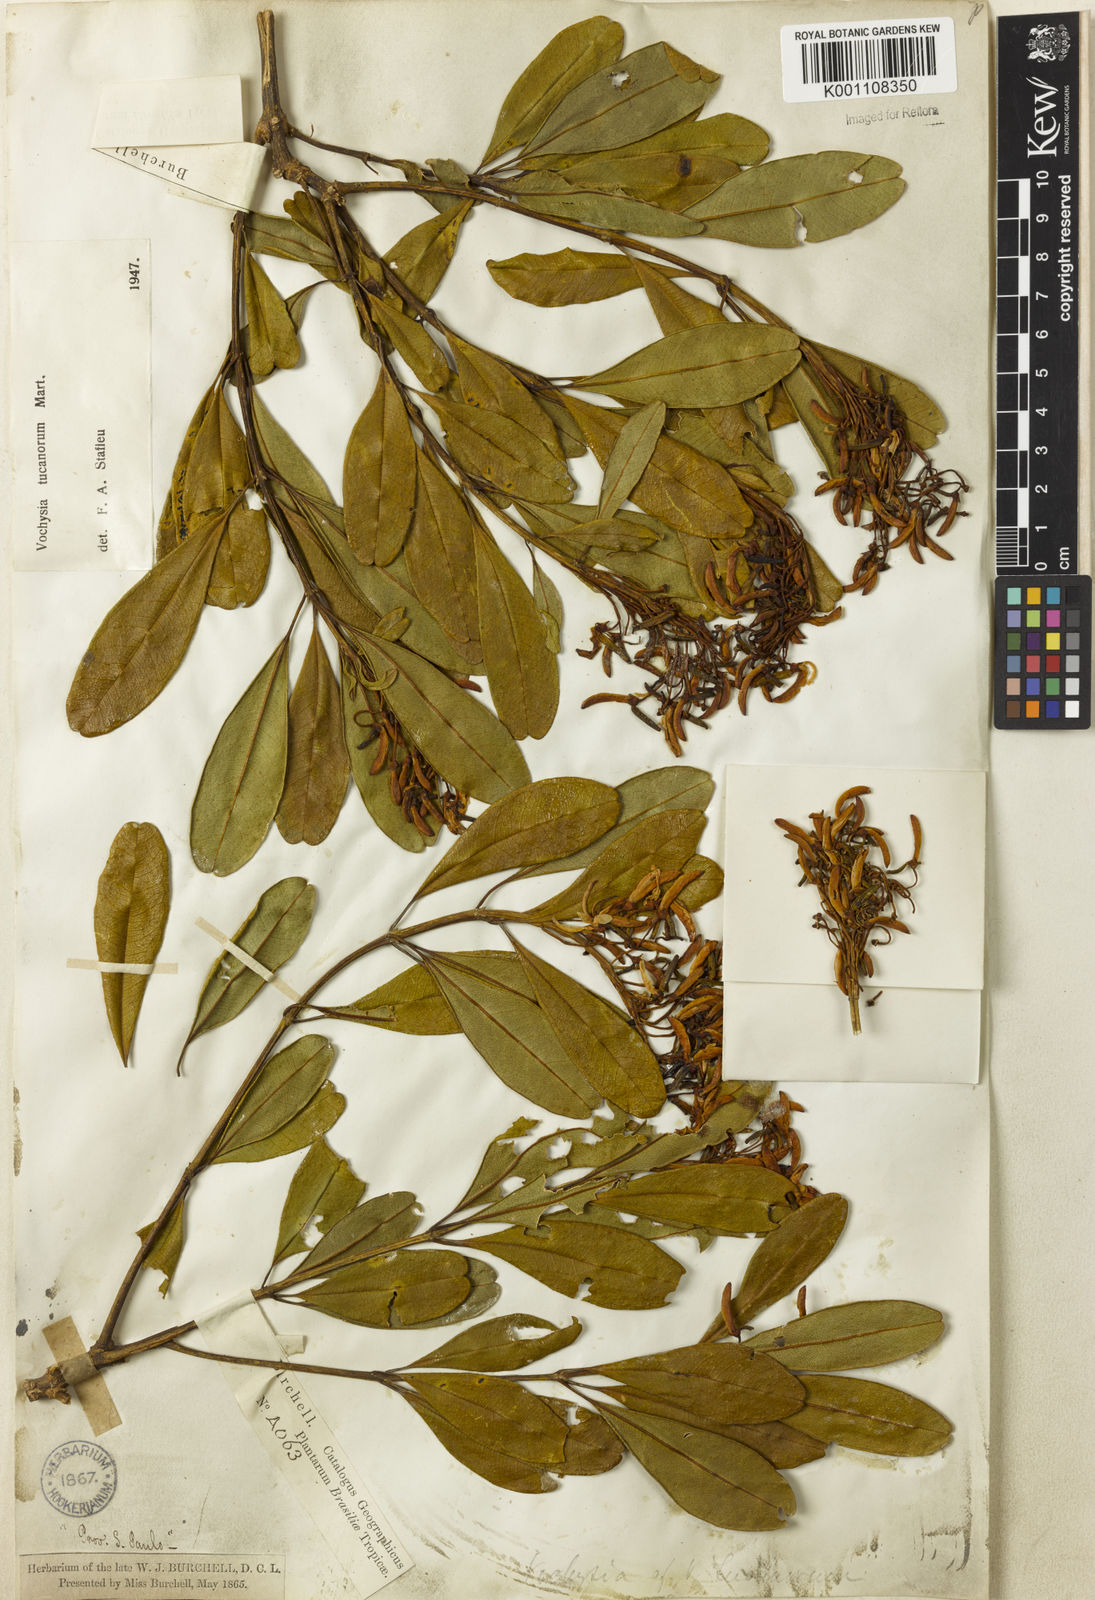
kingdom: Plantae
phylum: Tracheophyta
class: Magnoliopsida
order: Myrtales
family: Vochysiaceae
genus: Vochysia
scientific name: Vochysia tucanorum
